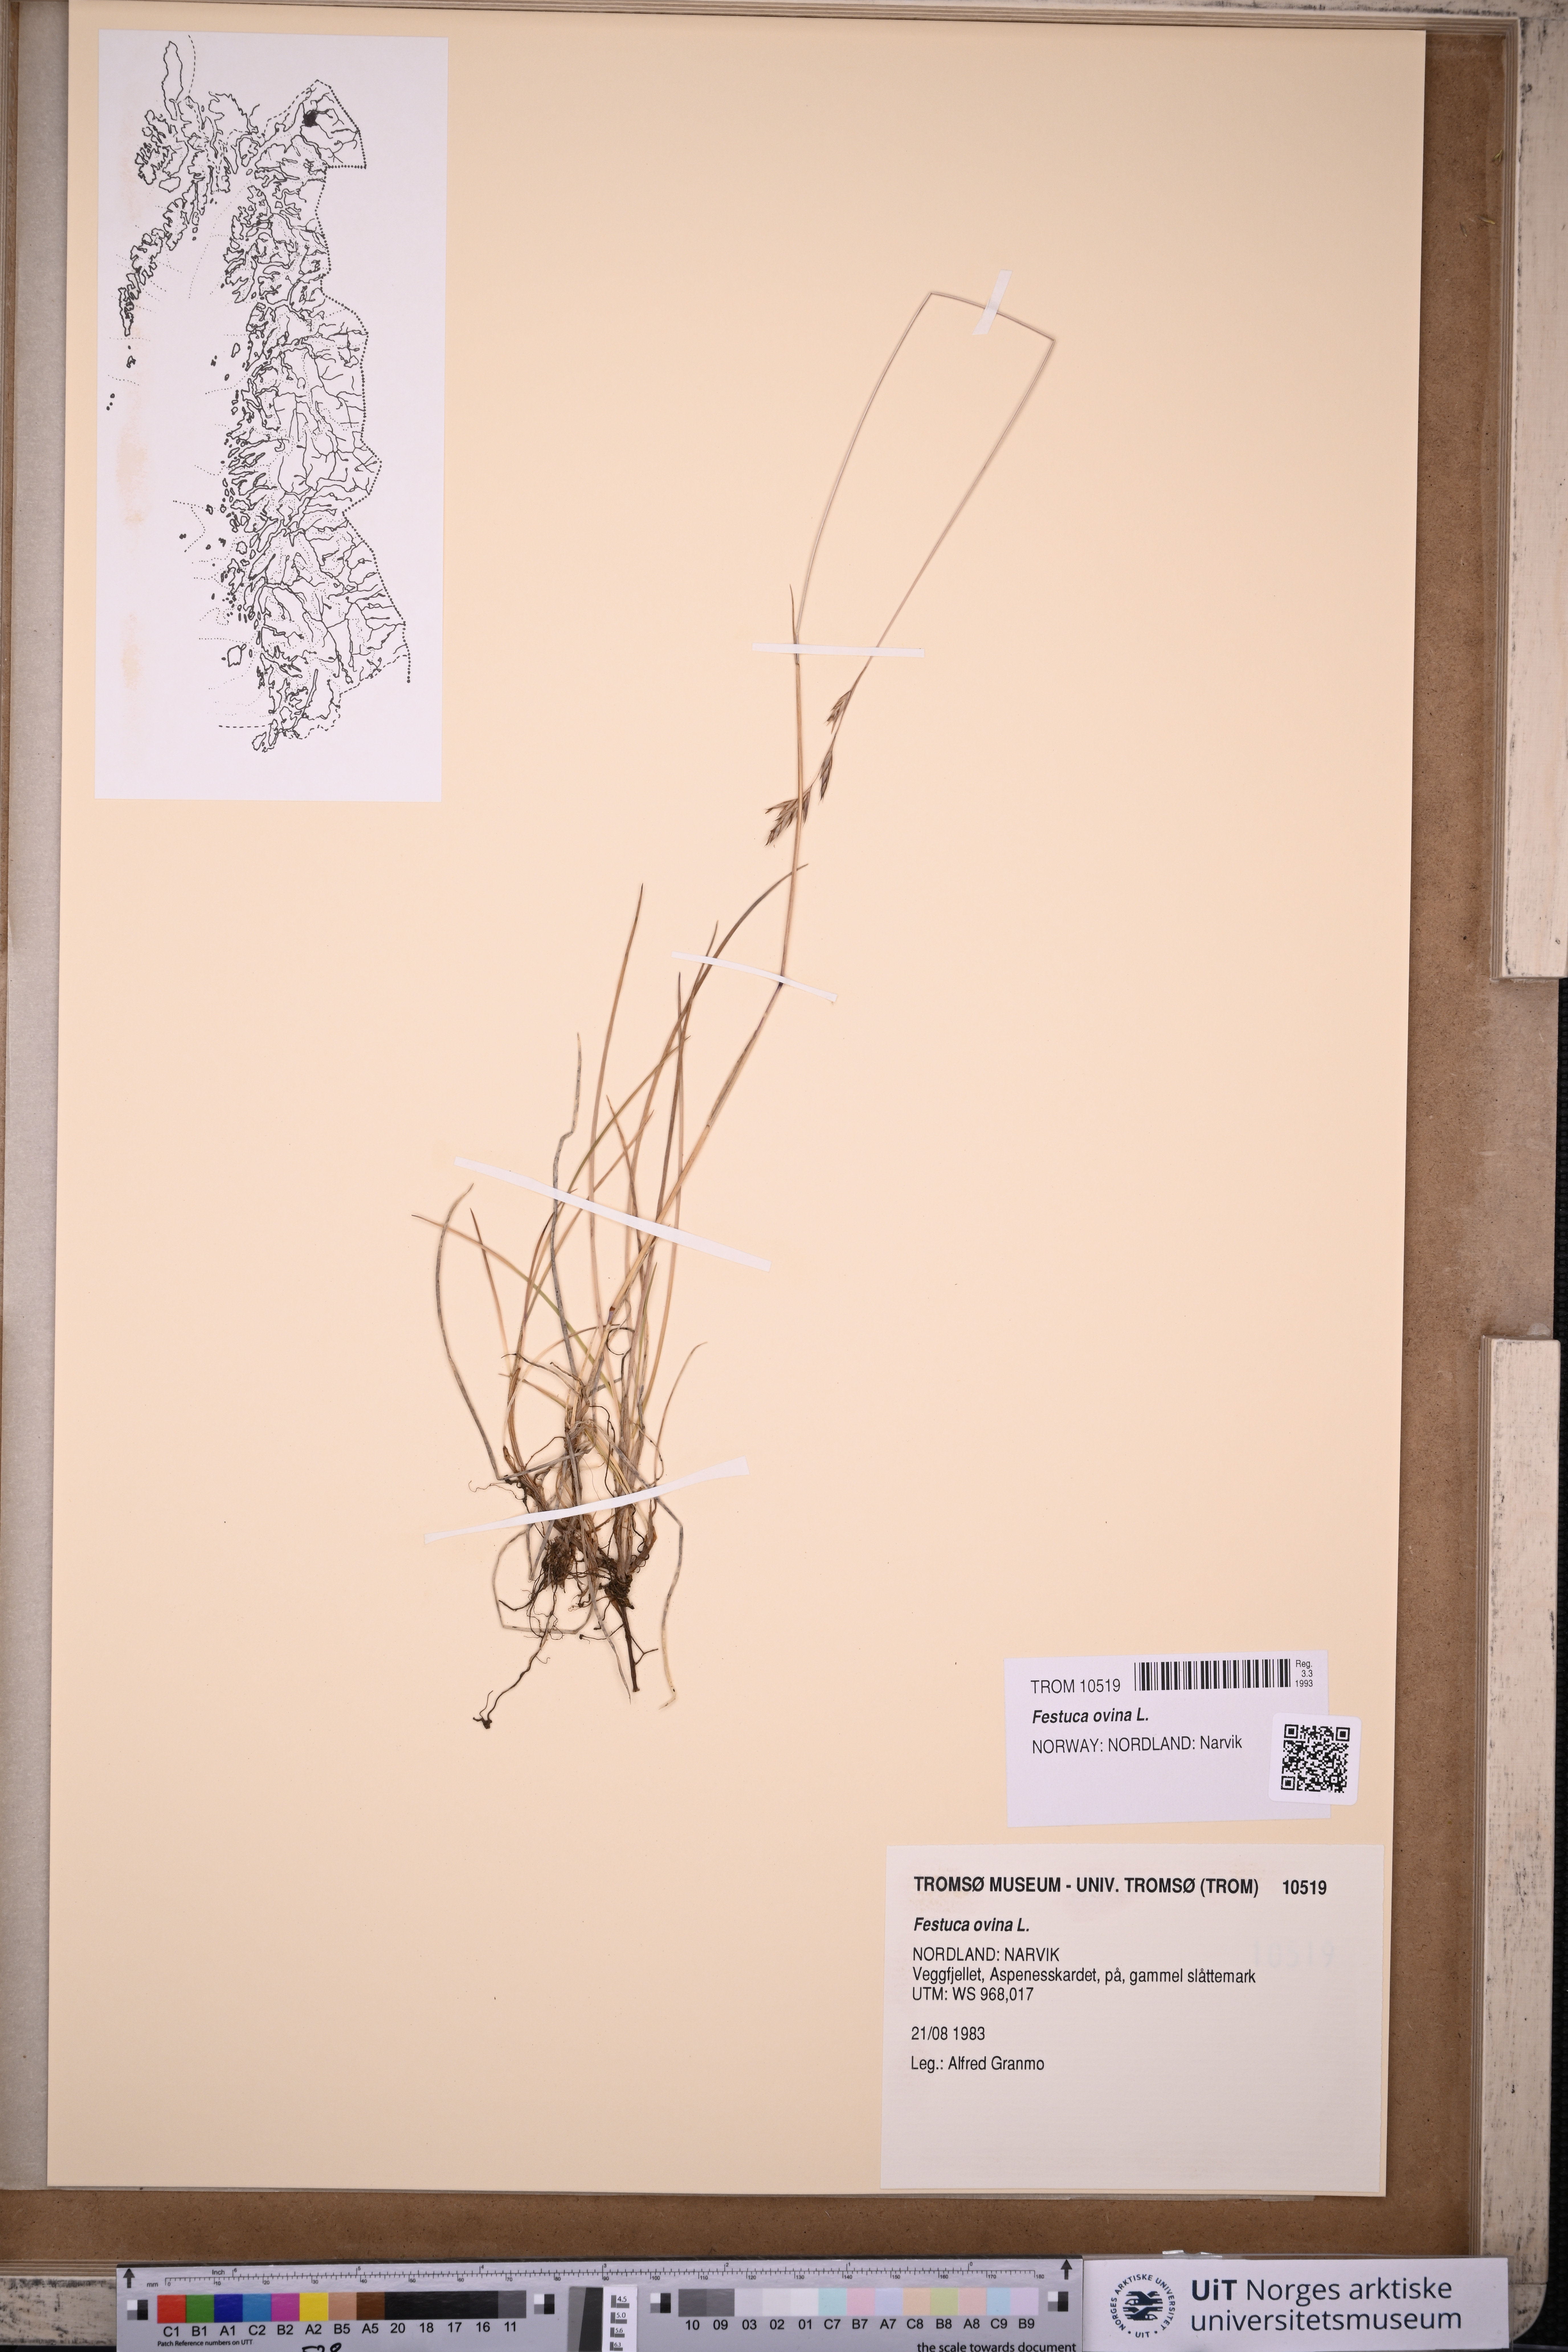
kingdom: Plantae
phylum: Tracheophyta
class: Liliopsida
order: Poales
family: Poaceae
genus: Festuca
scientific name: Festuca ovina
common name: Sheep fescue
